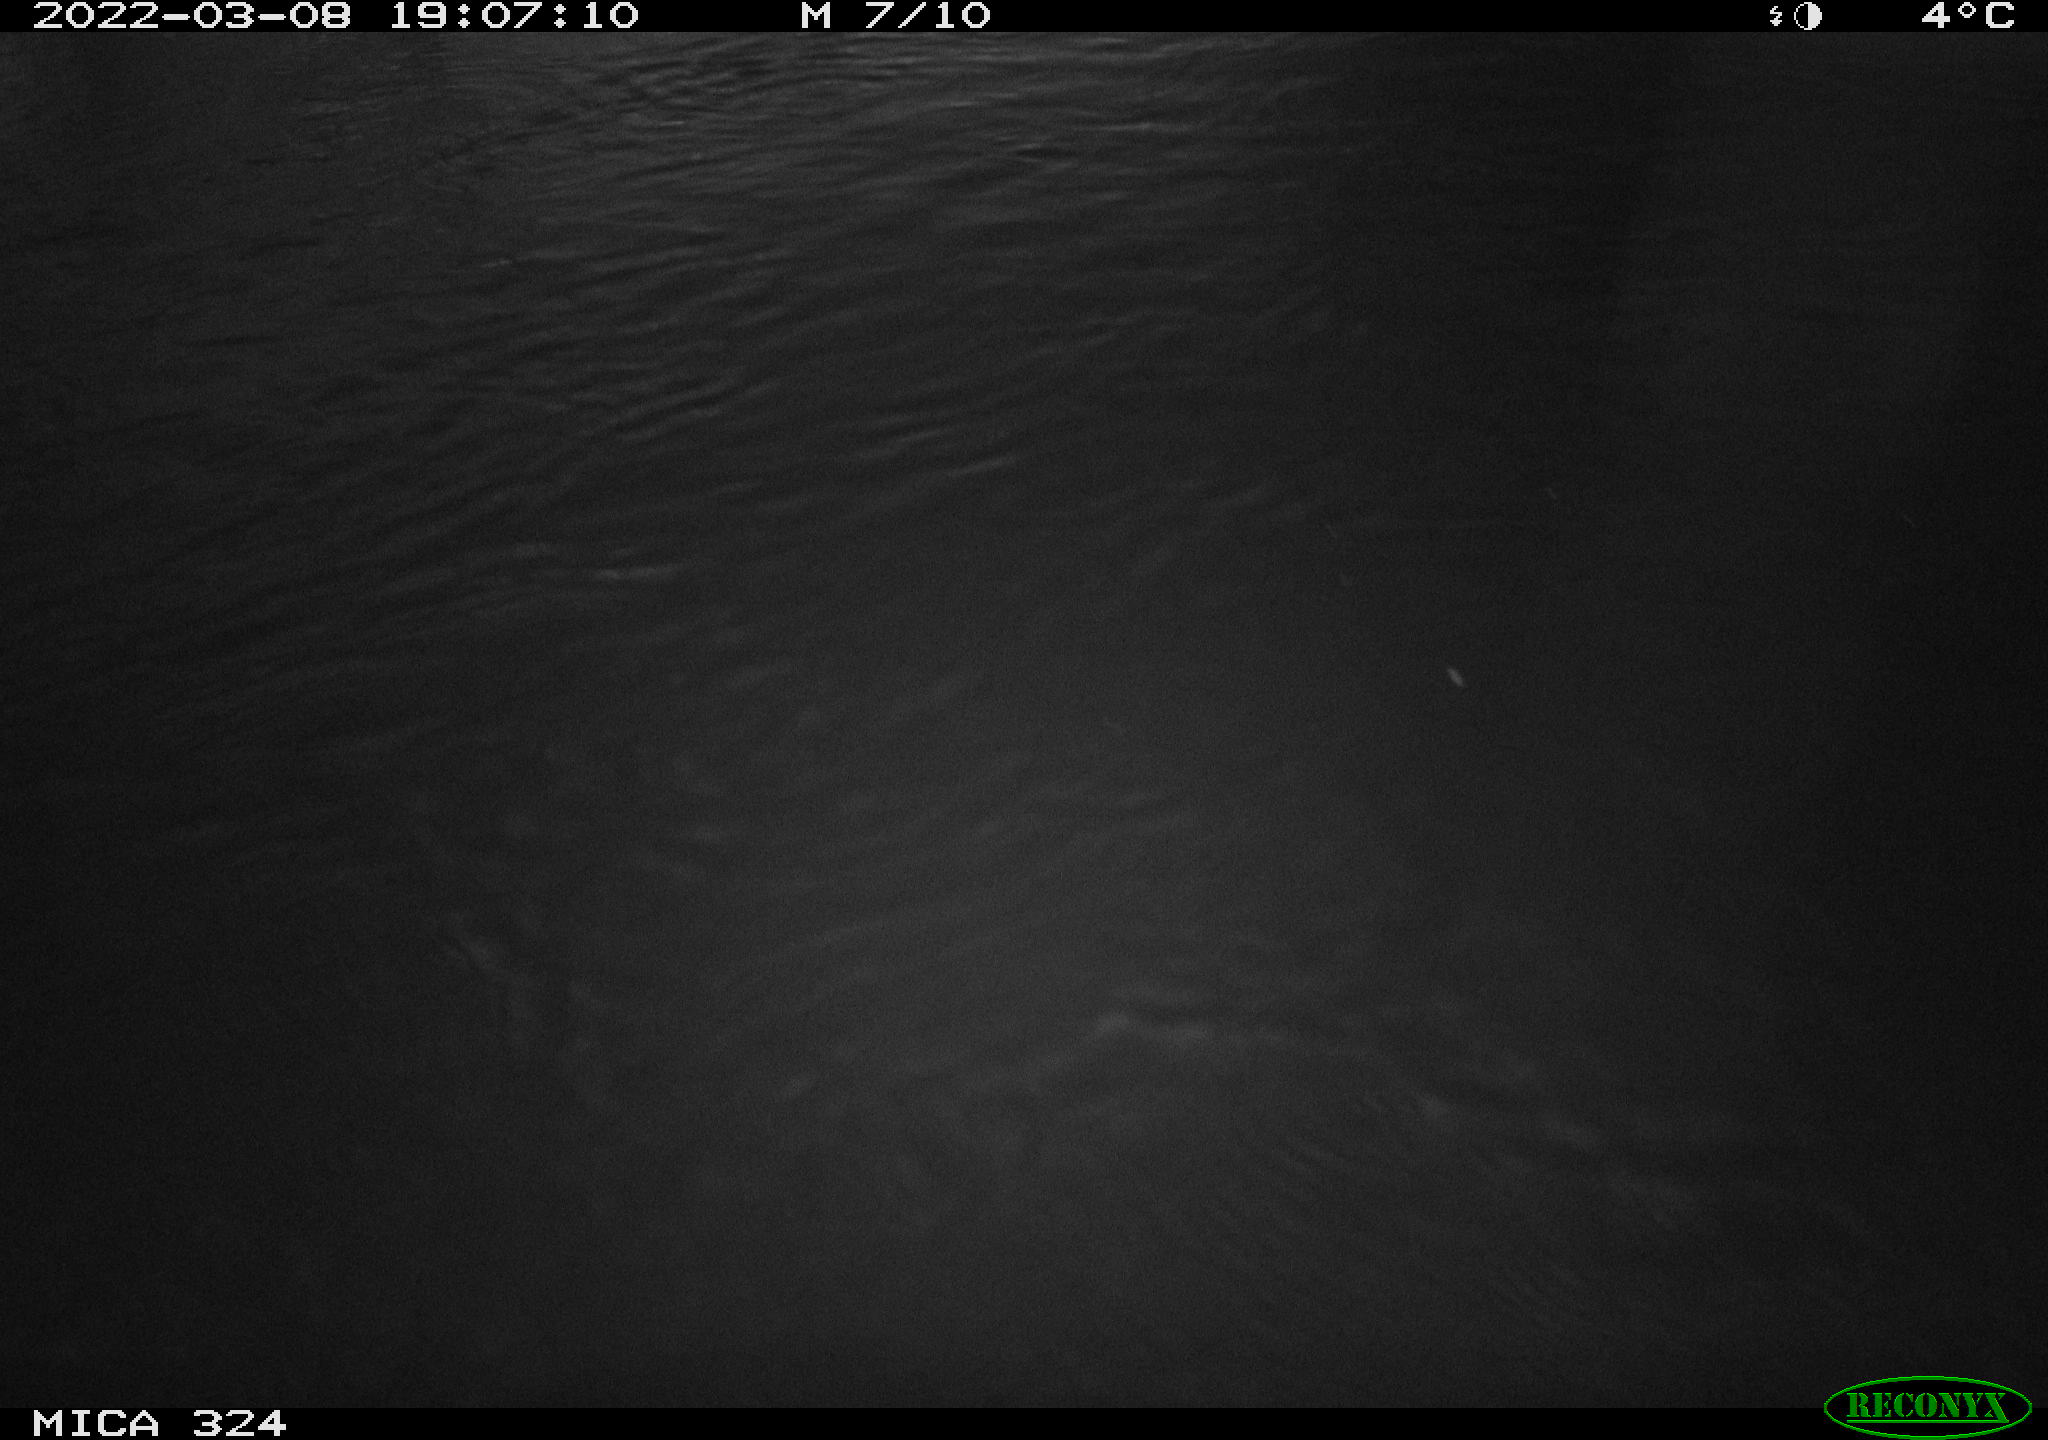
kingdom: Animalia
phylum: Chordata
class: Mammalia
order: Rodentia
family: Cricetidae
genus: Ondatra
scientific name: Ondatra zibethicus
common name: Muskrat
